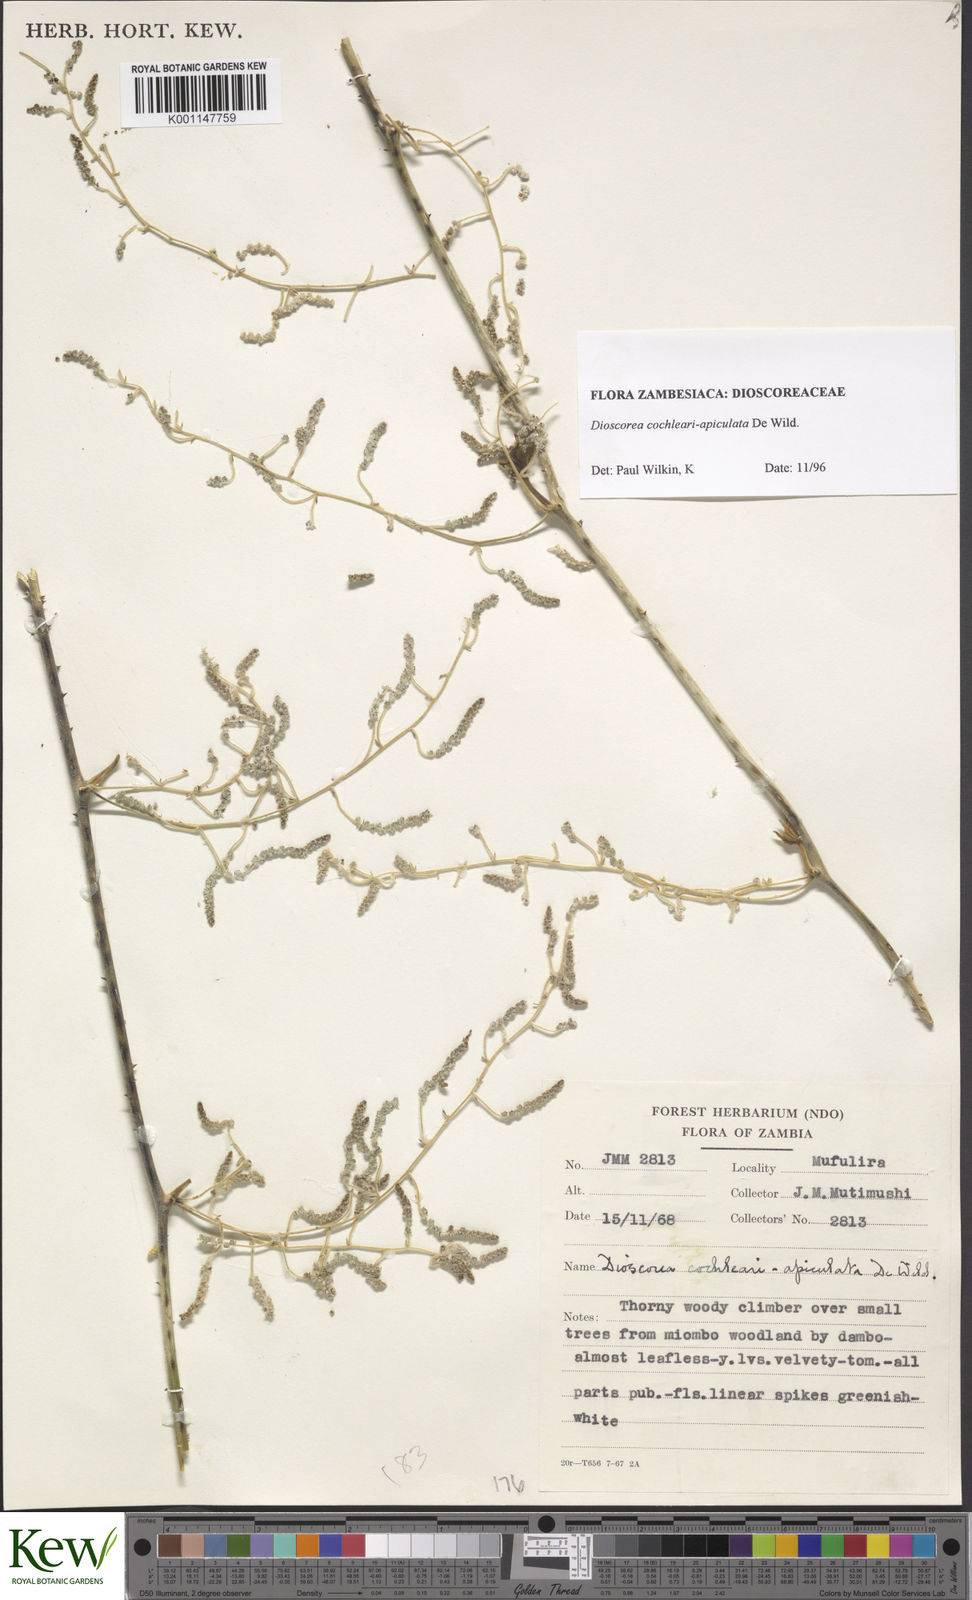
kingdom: Plantae
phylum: Tracheophyta
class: Liliopsida
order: Dioscoreales
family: Dioscoreaceae
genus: Dioscorea
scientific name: Dioscorea cochleariapiculata
